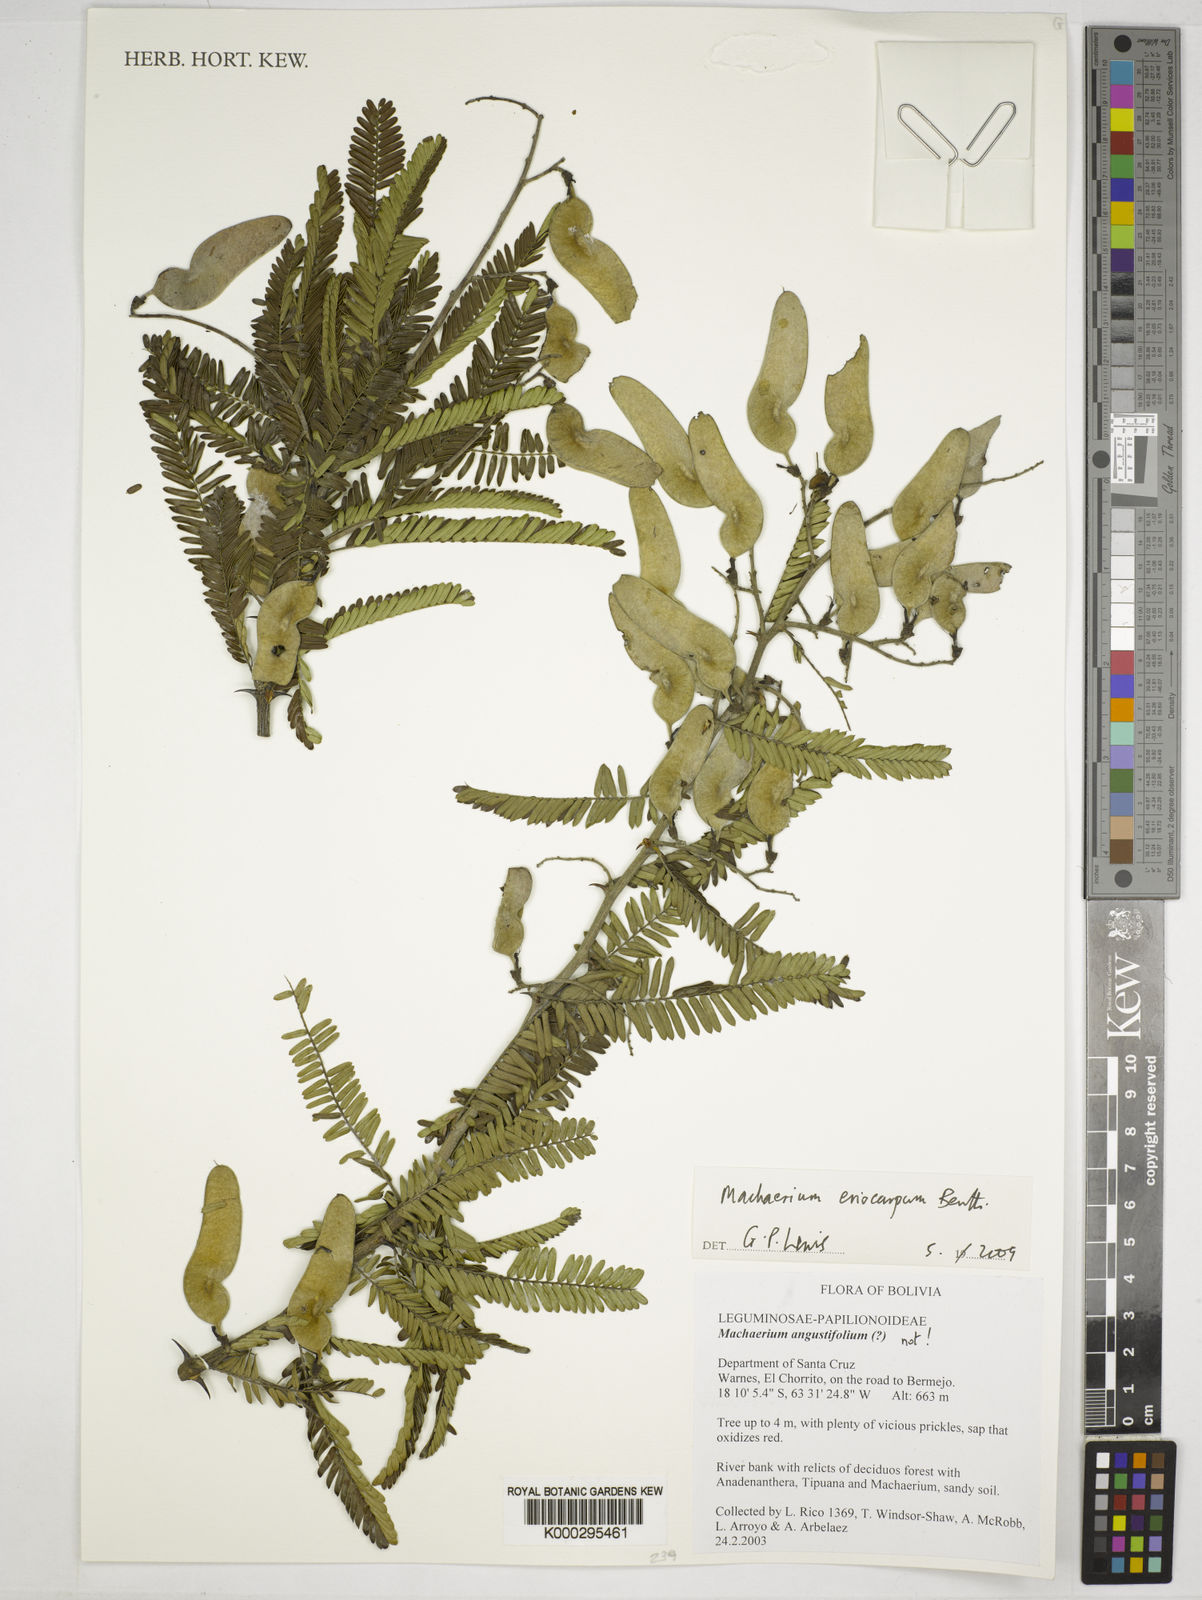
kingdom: Plantae
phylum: Tracheophyta
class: Magnoliopsida
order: Fabales
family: Fabaceae
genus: Machaerium
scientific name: Machaerium eriocarpum
